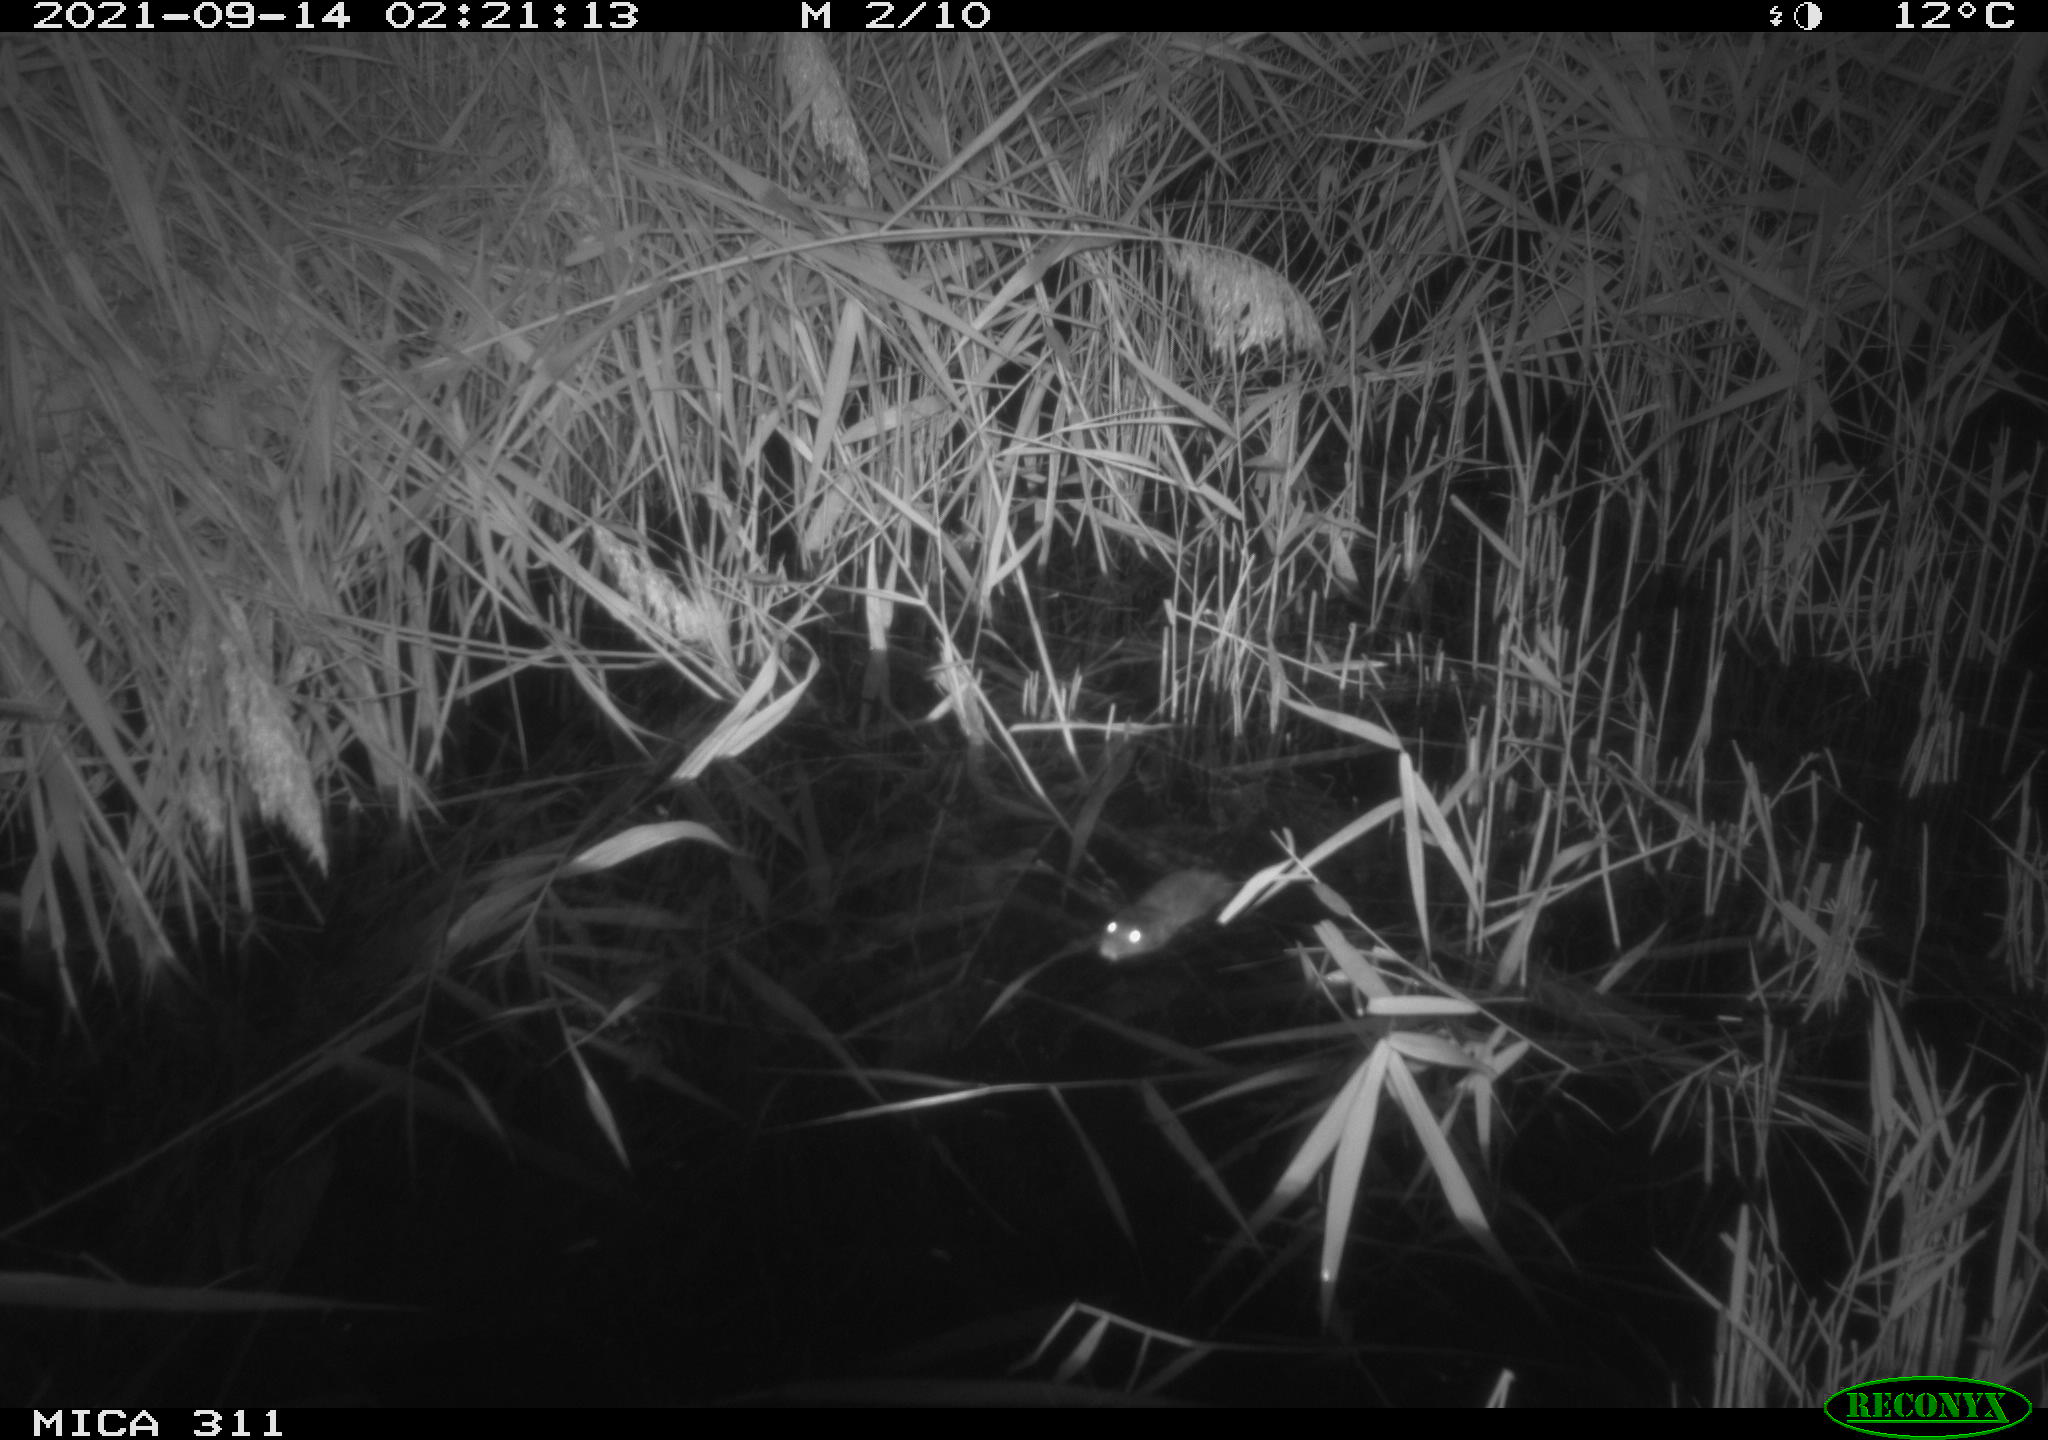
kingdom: Animalia
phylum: Chordata
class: Mammalia
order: Rodentia
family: Muridae
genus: Rattus
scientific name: Rattus norvegicus
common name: Brown rat
